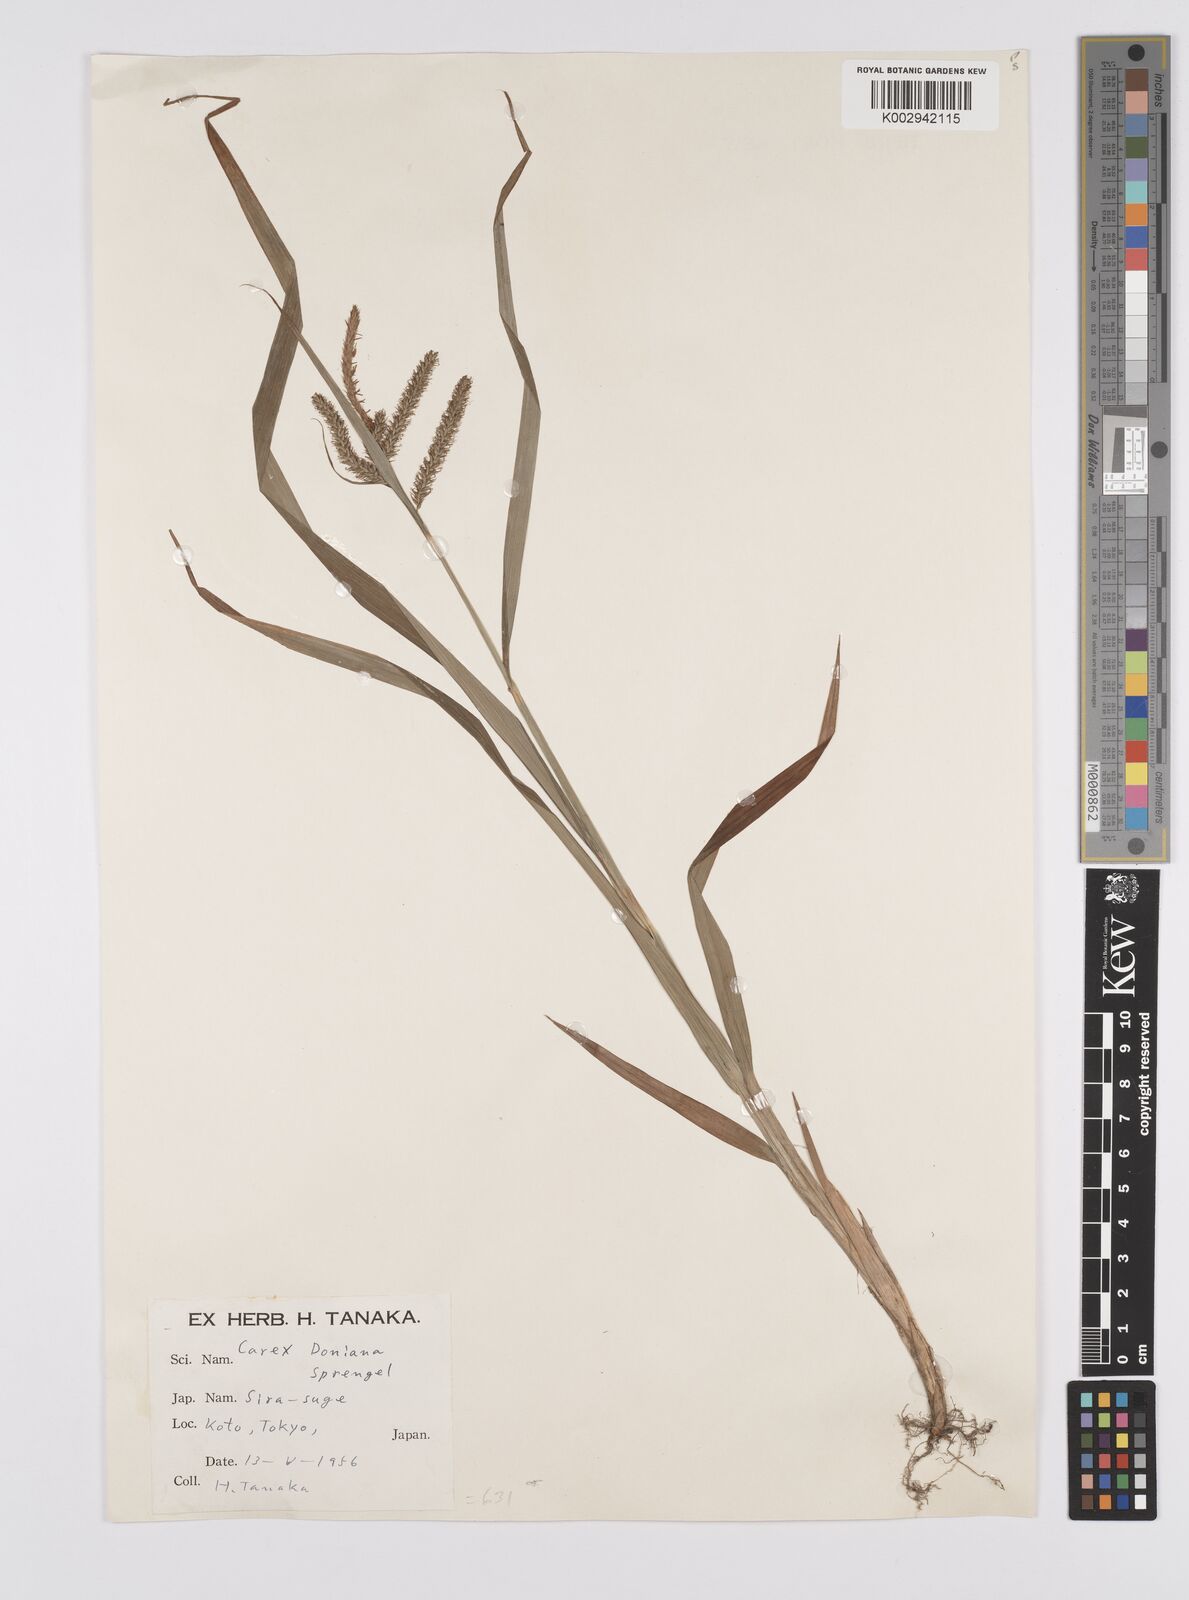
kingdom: Plantae
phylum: Tracheophyta
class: Liliopsida
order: Poales
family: Cyperaceae
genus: Carex
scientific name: Carex japonica
